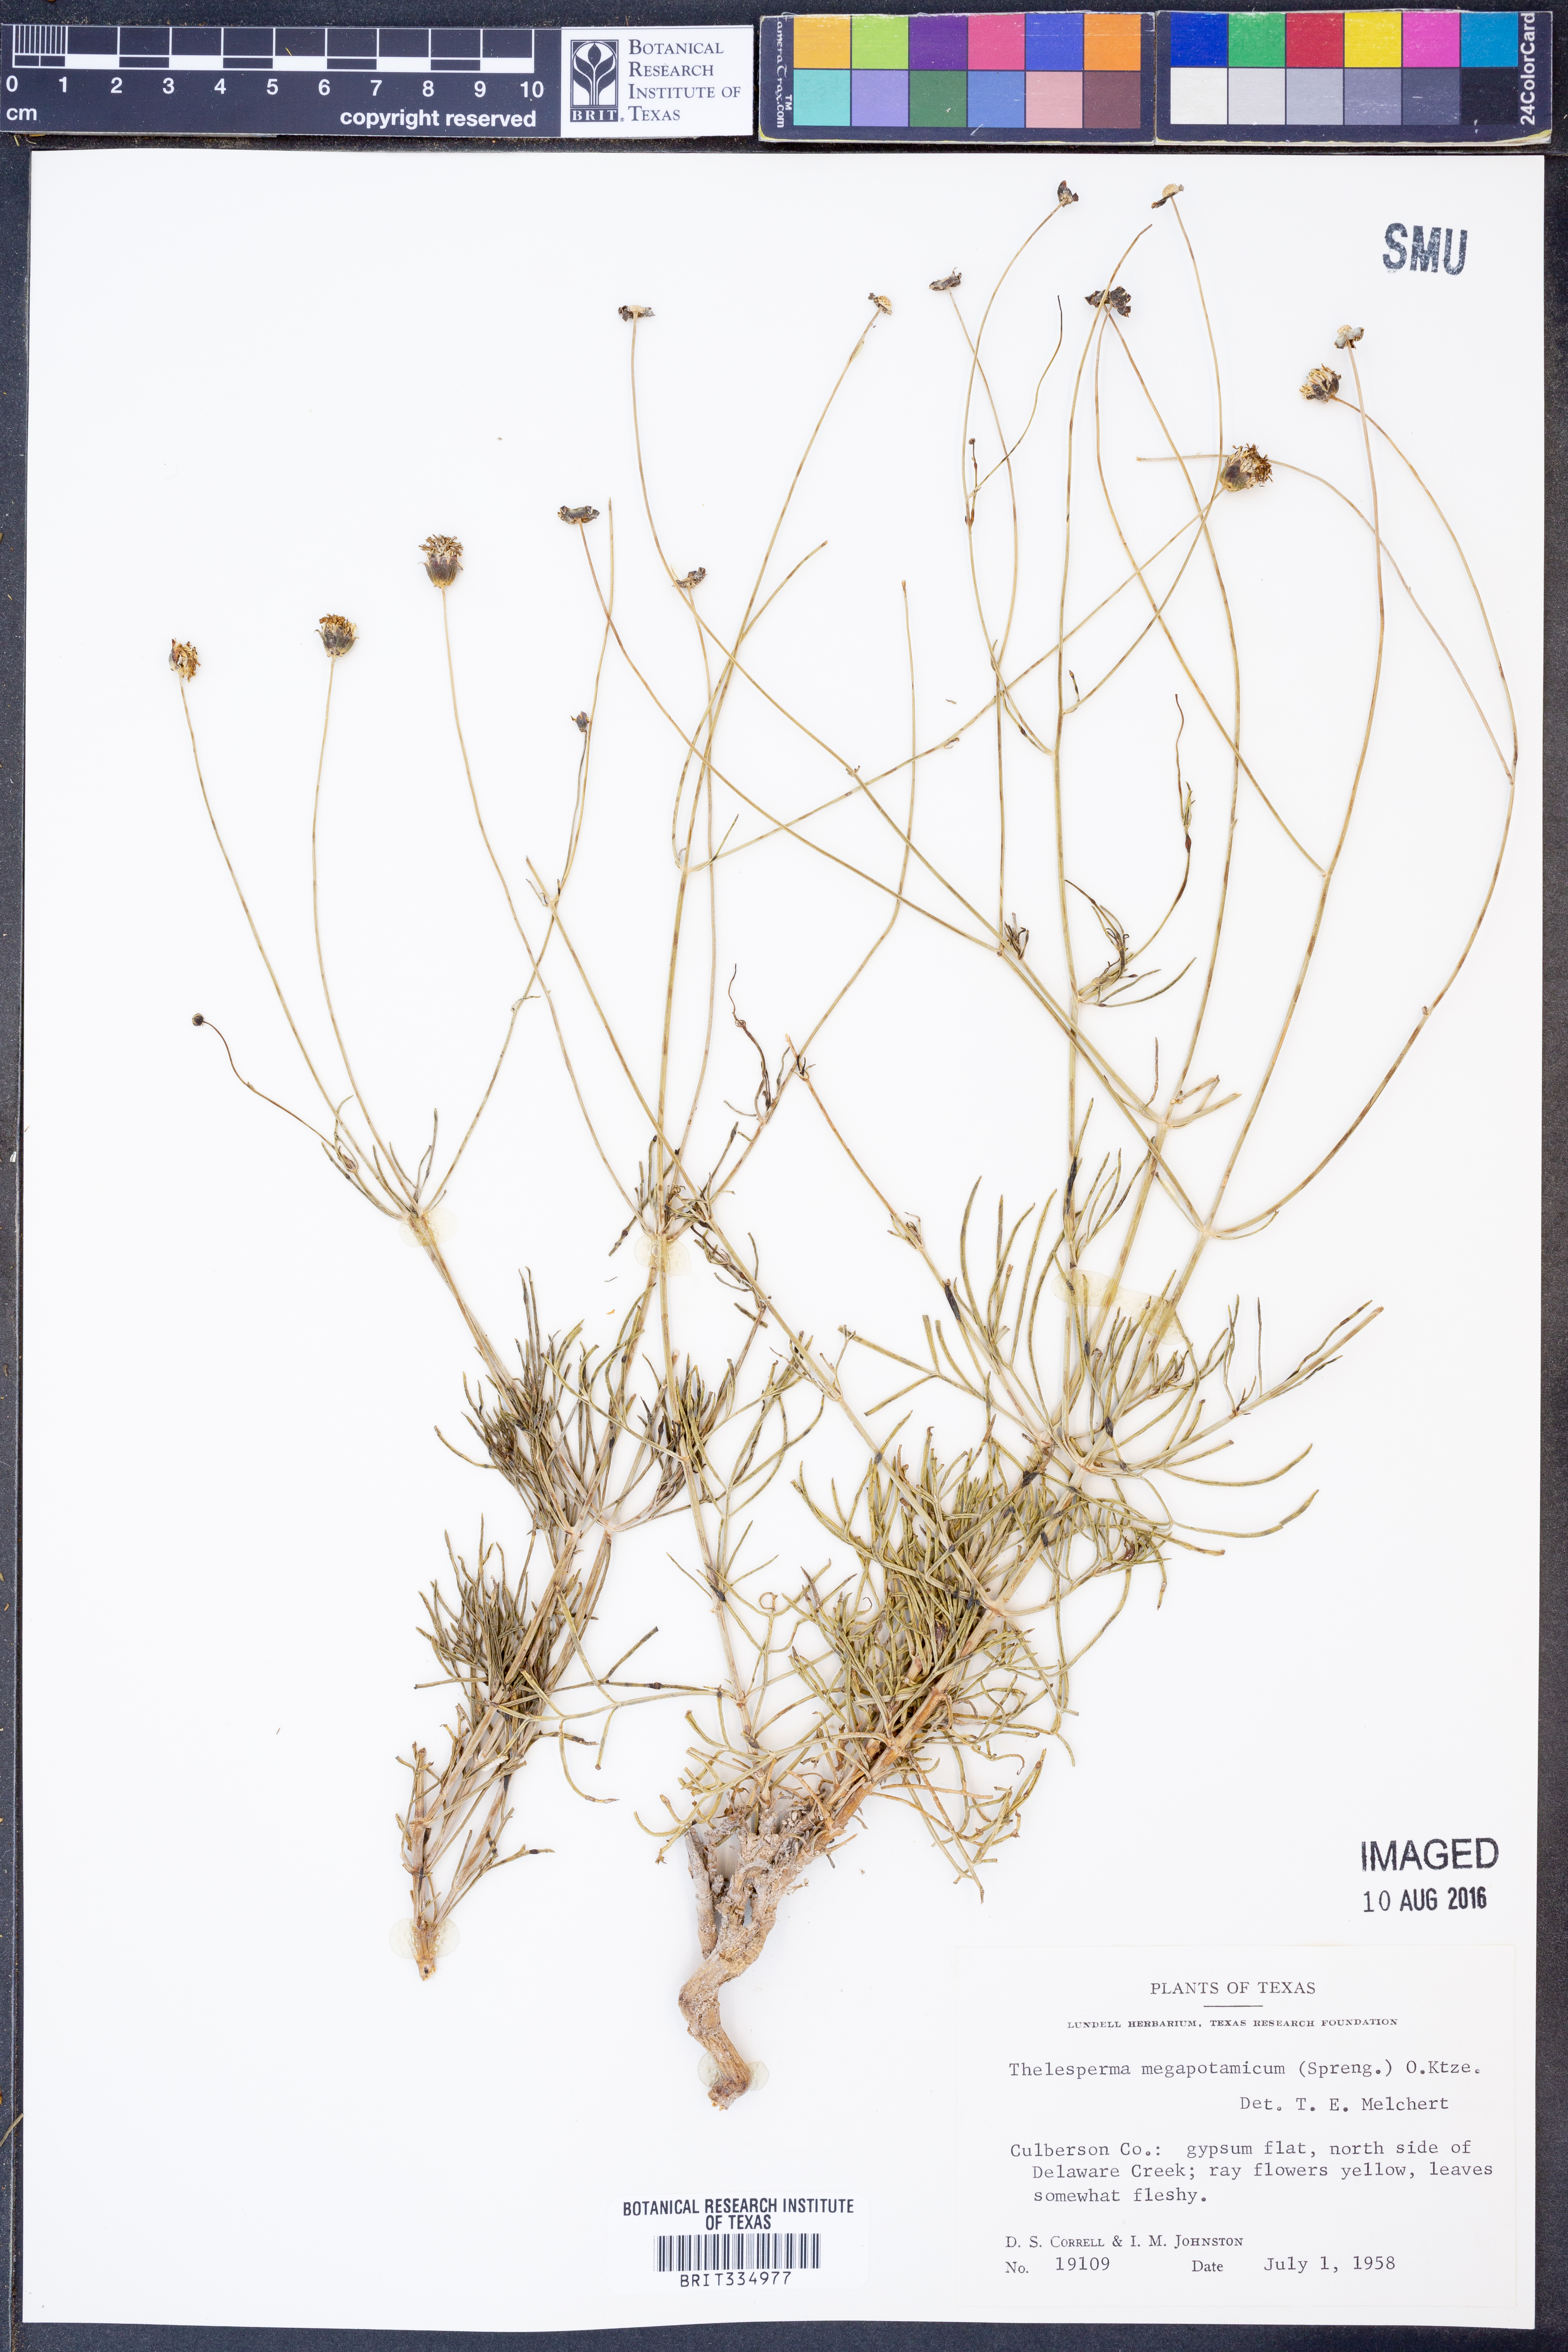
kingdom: Plantae
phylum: Tracheophyta
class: Magnoliopsida
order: Asterales
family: Asteraceae
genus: Thelesperma
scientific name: Thelesperma megapotamicum
